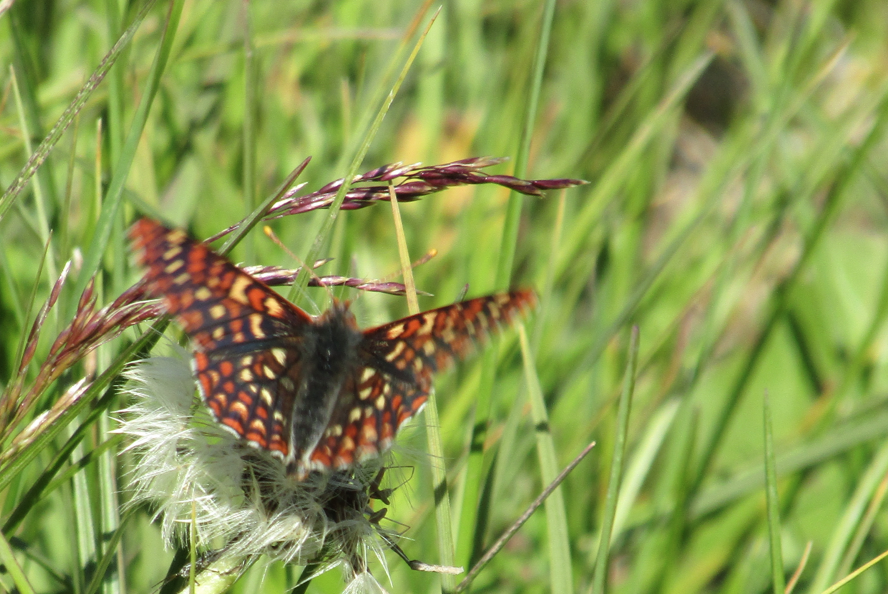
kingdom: Animalia
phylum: Arthropoda
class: Insecta
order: Lepidoptera
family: Nymphalidae
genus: Occidryas
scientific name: Occidryas anicia
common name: Anicia Checkerspot
